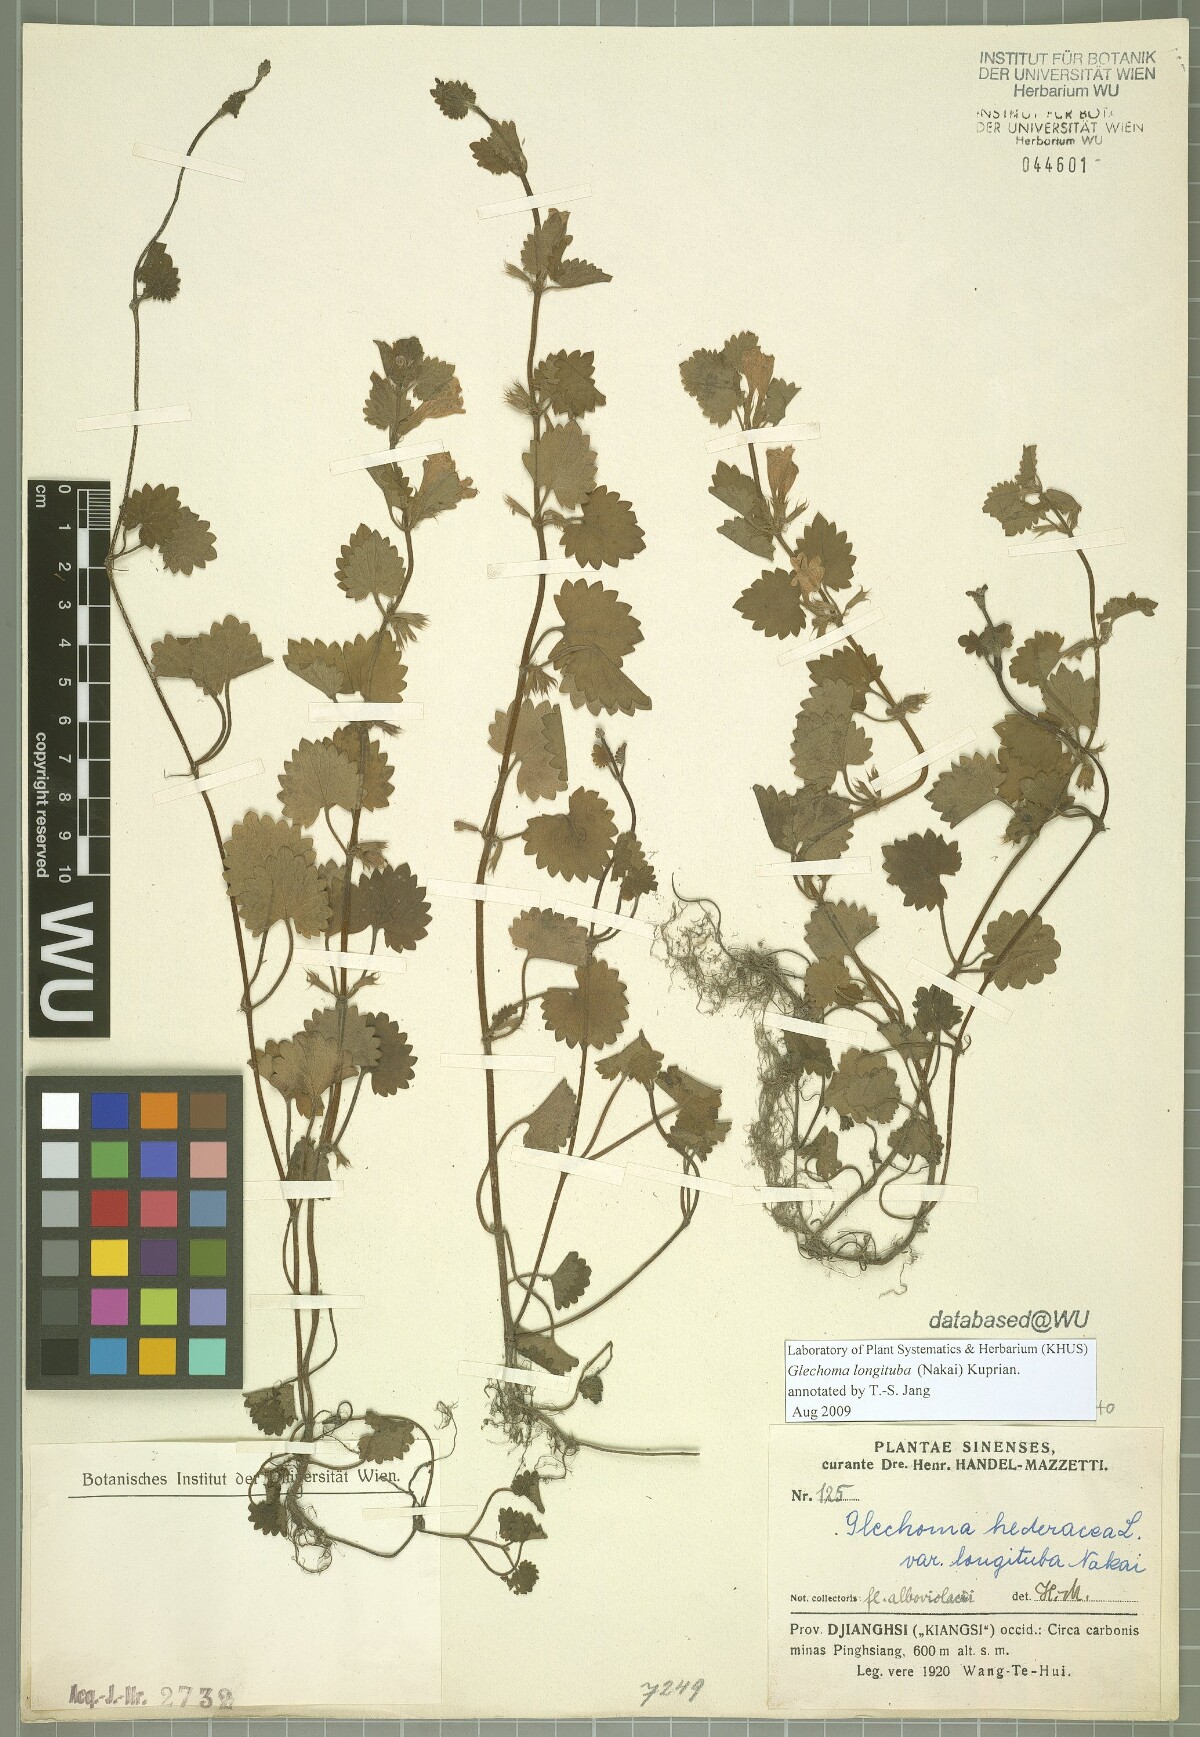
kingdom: Plantae
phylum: Tracheophyta
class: Magnoliopsida
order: Lamiales
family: Lamiaceae
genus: Glechoma
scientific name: Glechoma longituba
